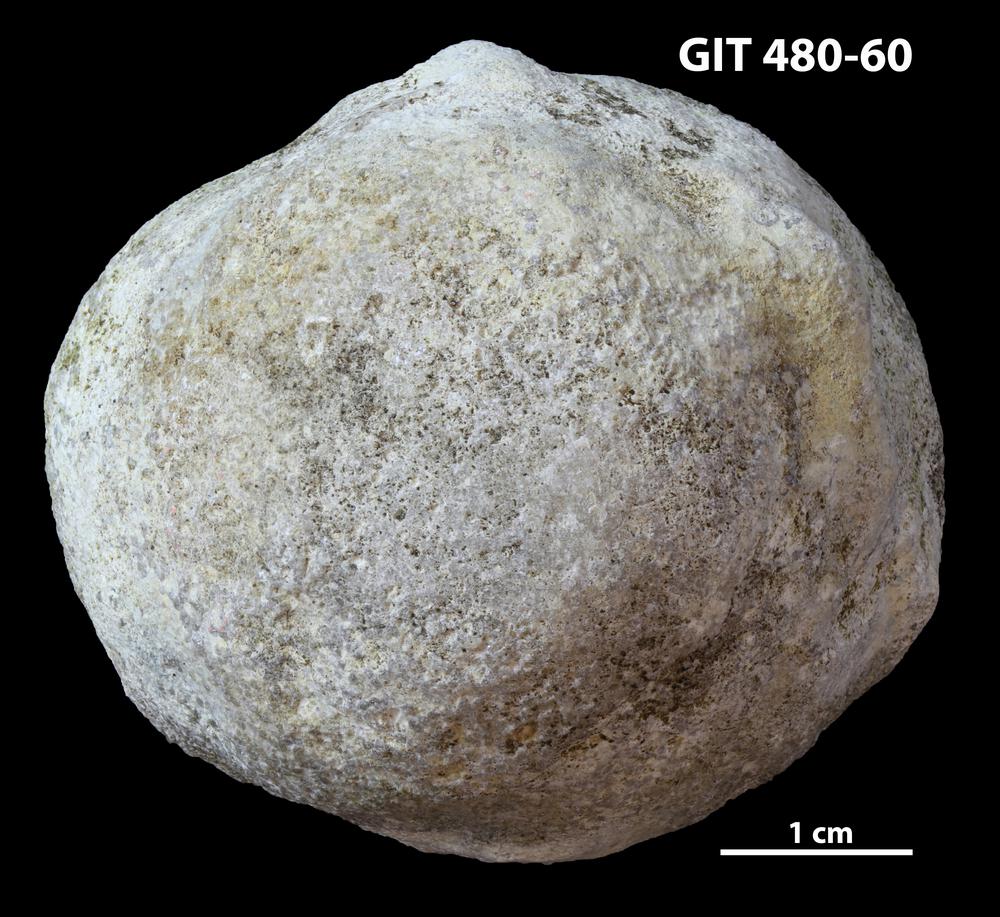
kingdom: Animalia
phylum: Bryozoa
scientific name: Bryozoa
